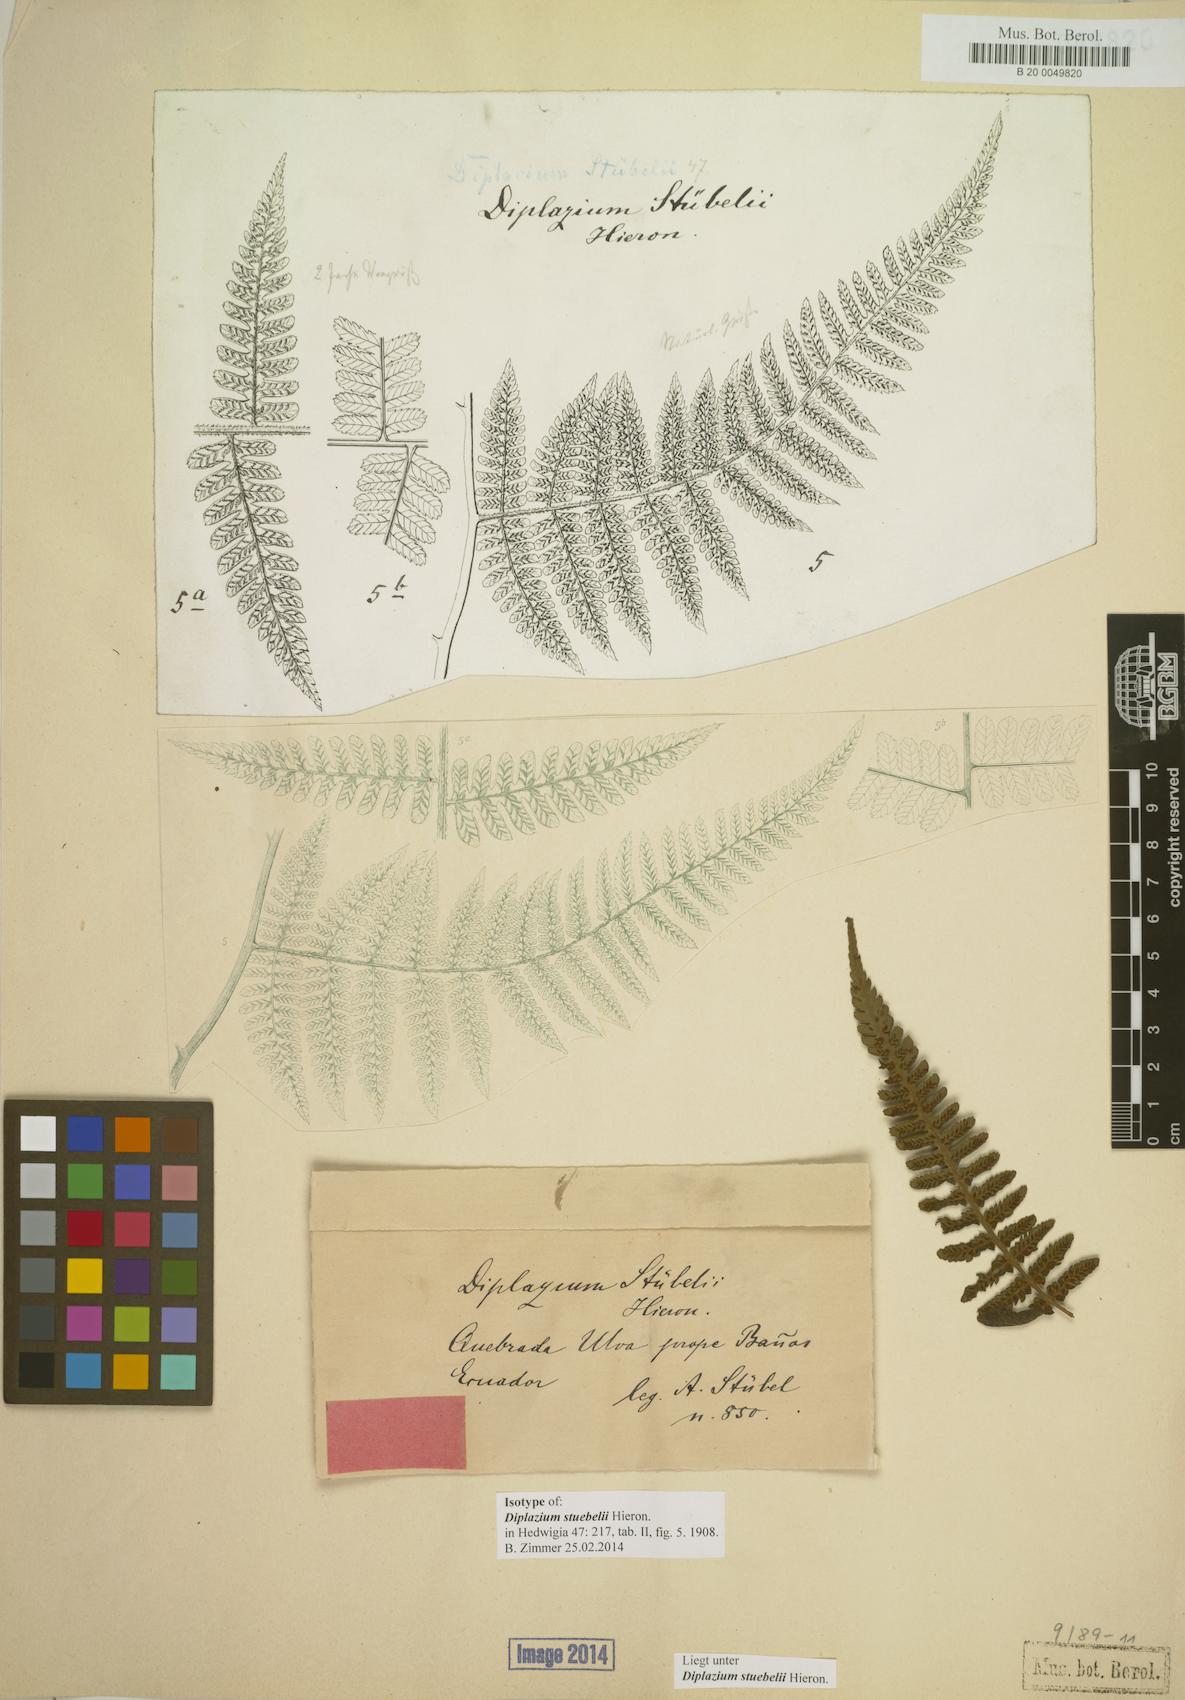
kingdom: Plantae
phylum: Tracheophyta
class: Polypodiopsida
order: Polypodiales
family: Athyriaceae
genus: Diplazium
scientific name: Diplazium stuebelii
